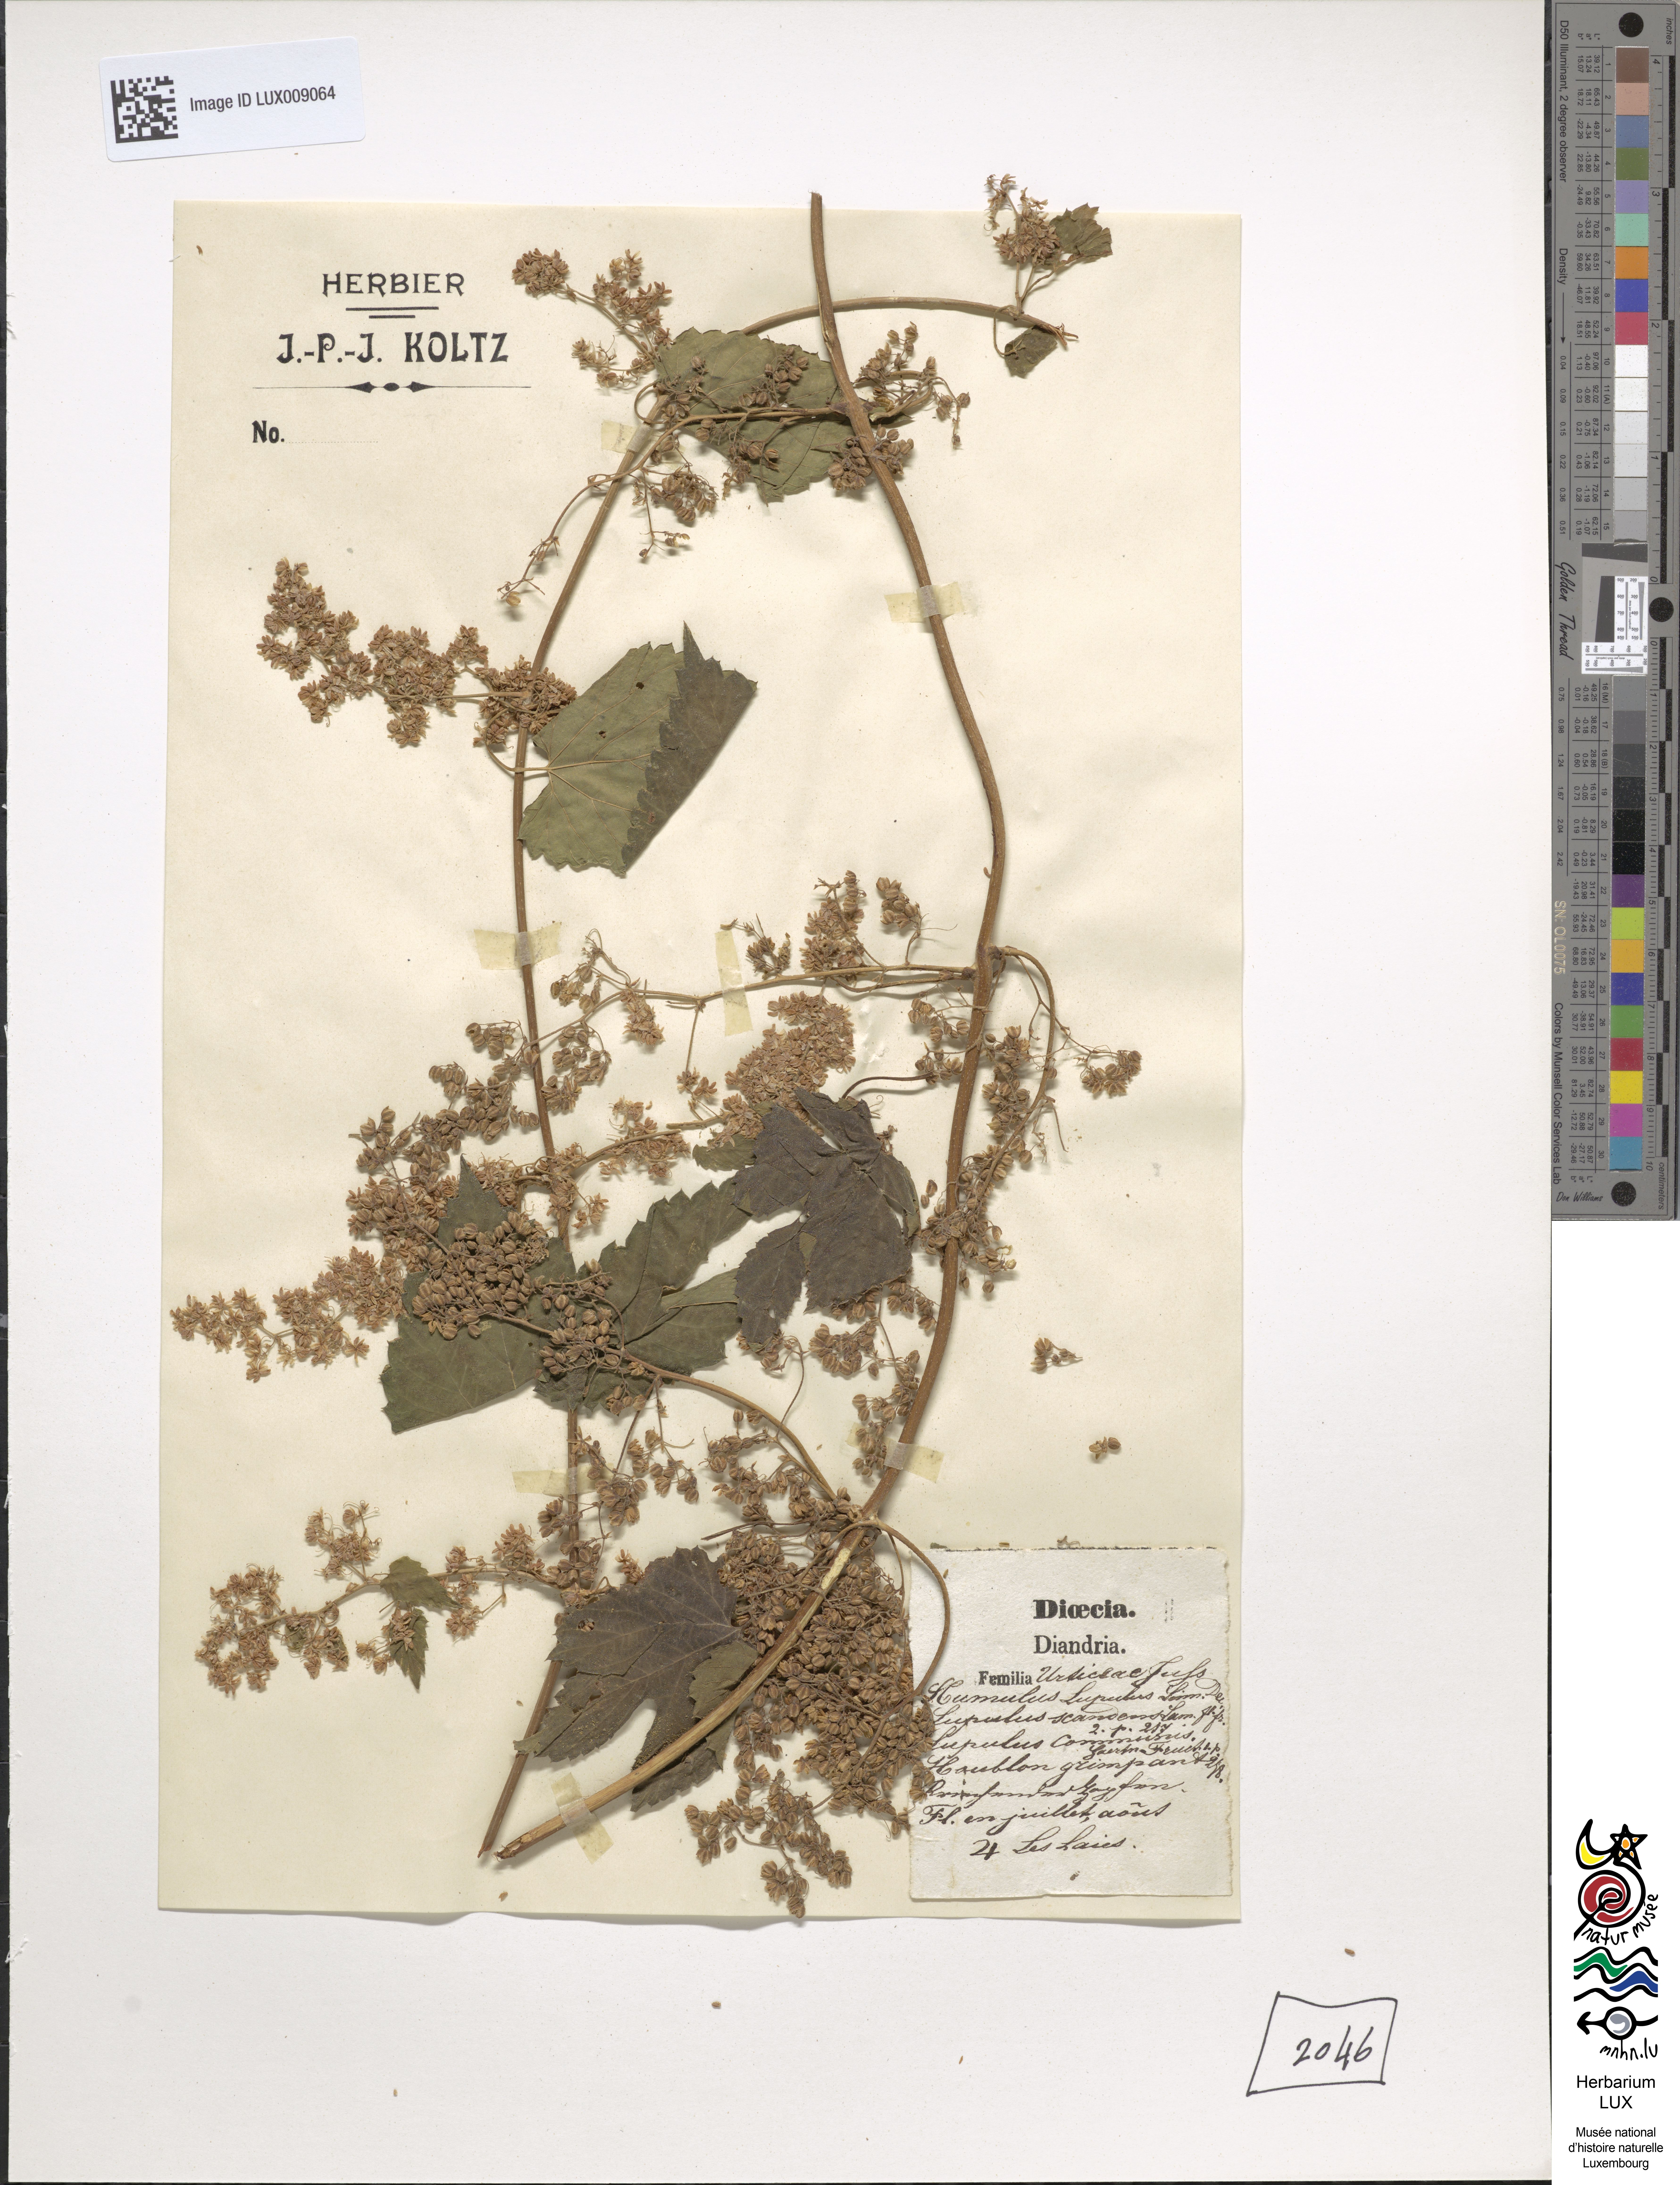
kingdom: Plantae
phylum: Tracheophyta
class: Magnoliopsida
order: Rosales
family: Cannabaceae
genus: Humulus
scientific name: Humulus lupulus
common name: Hop
